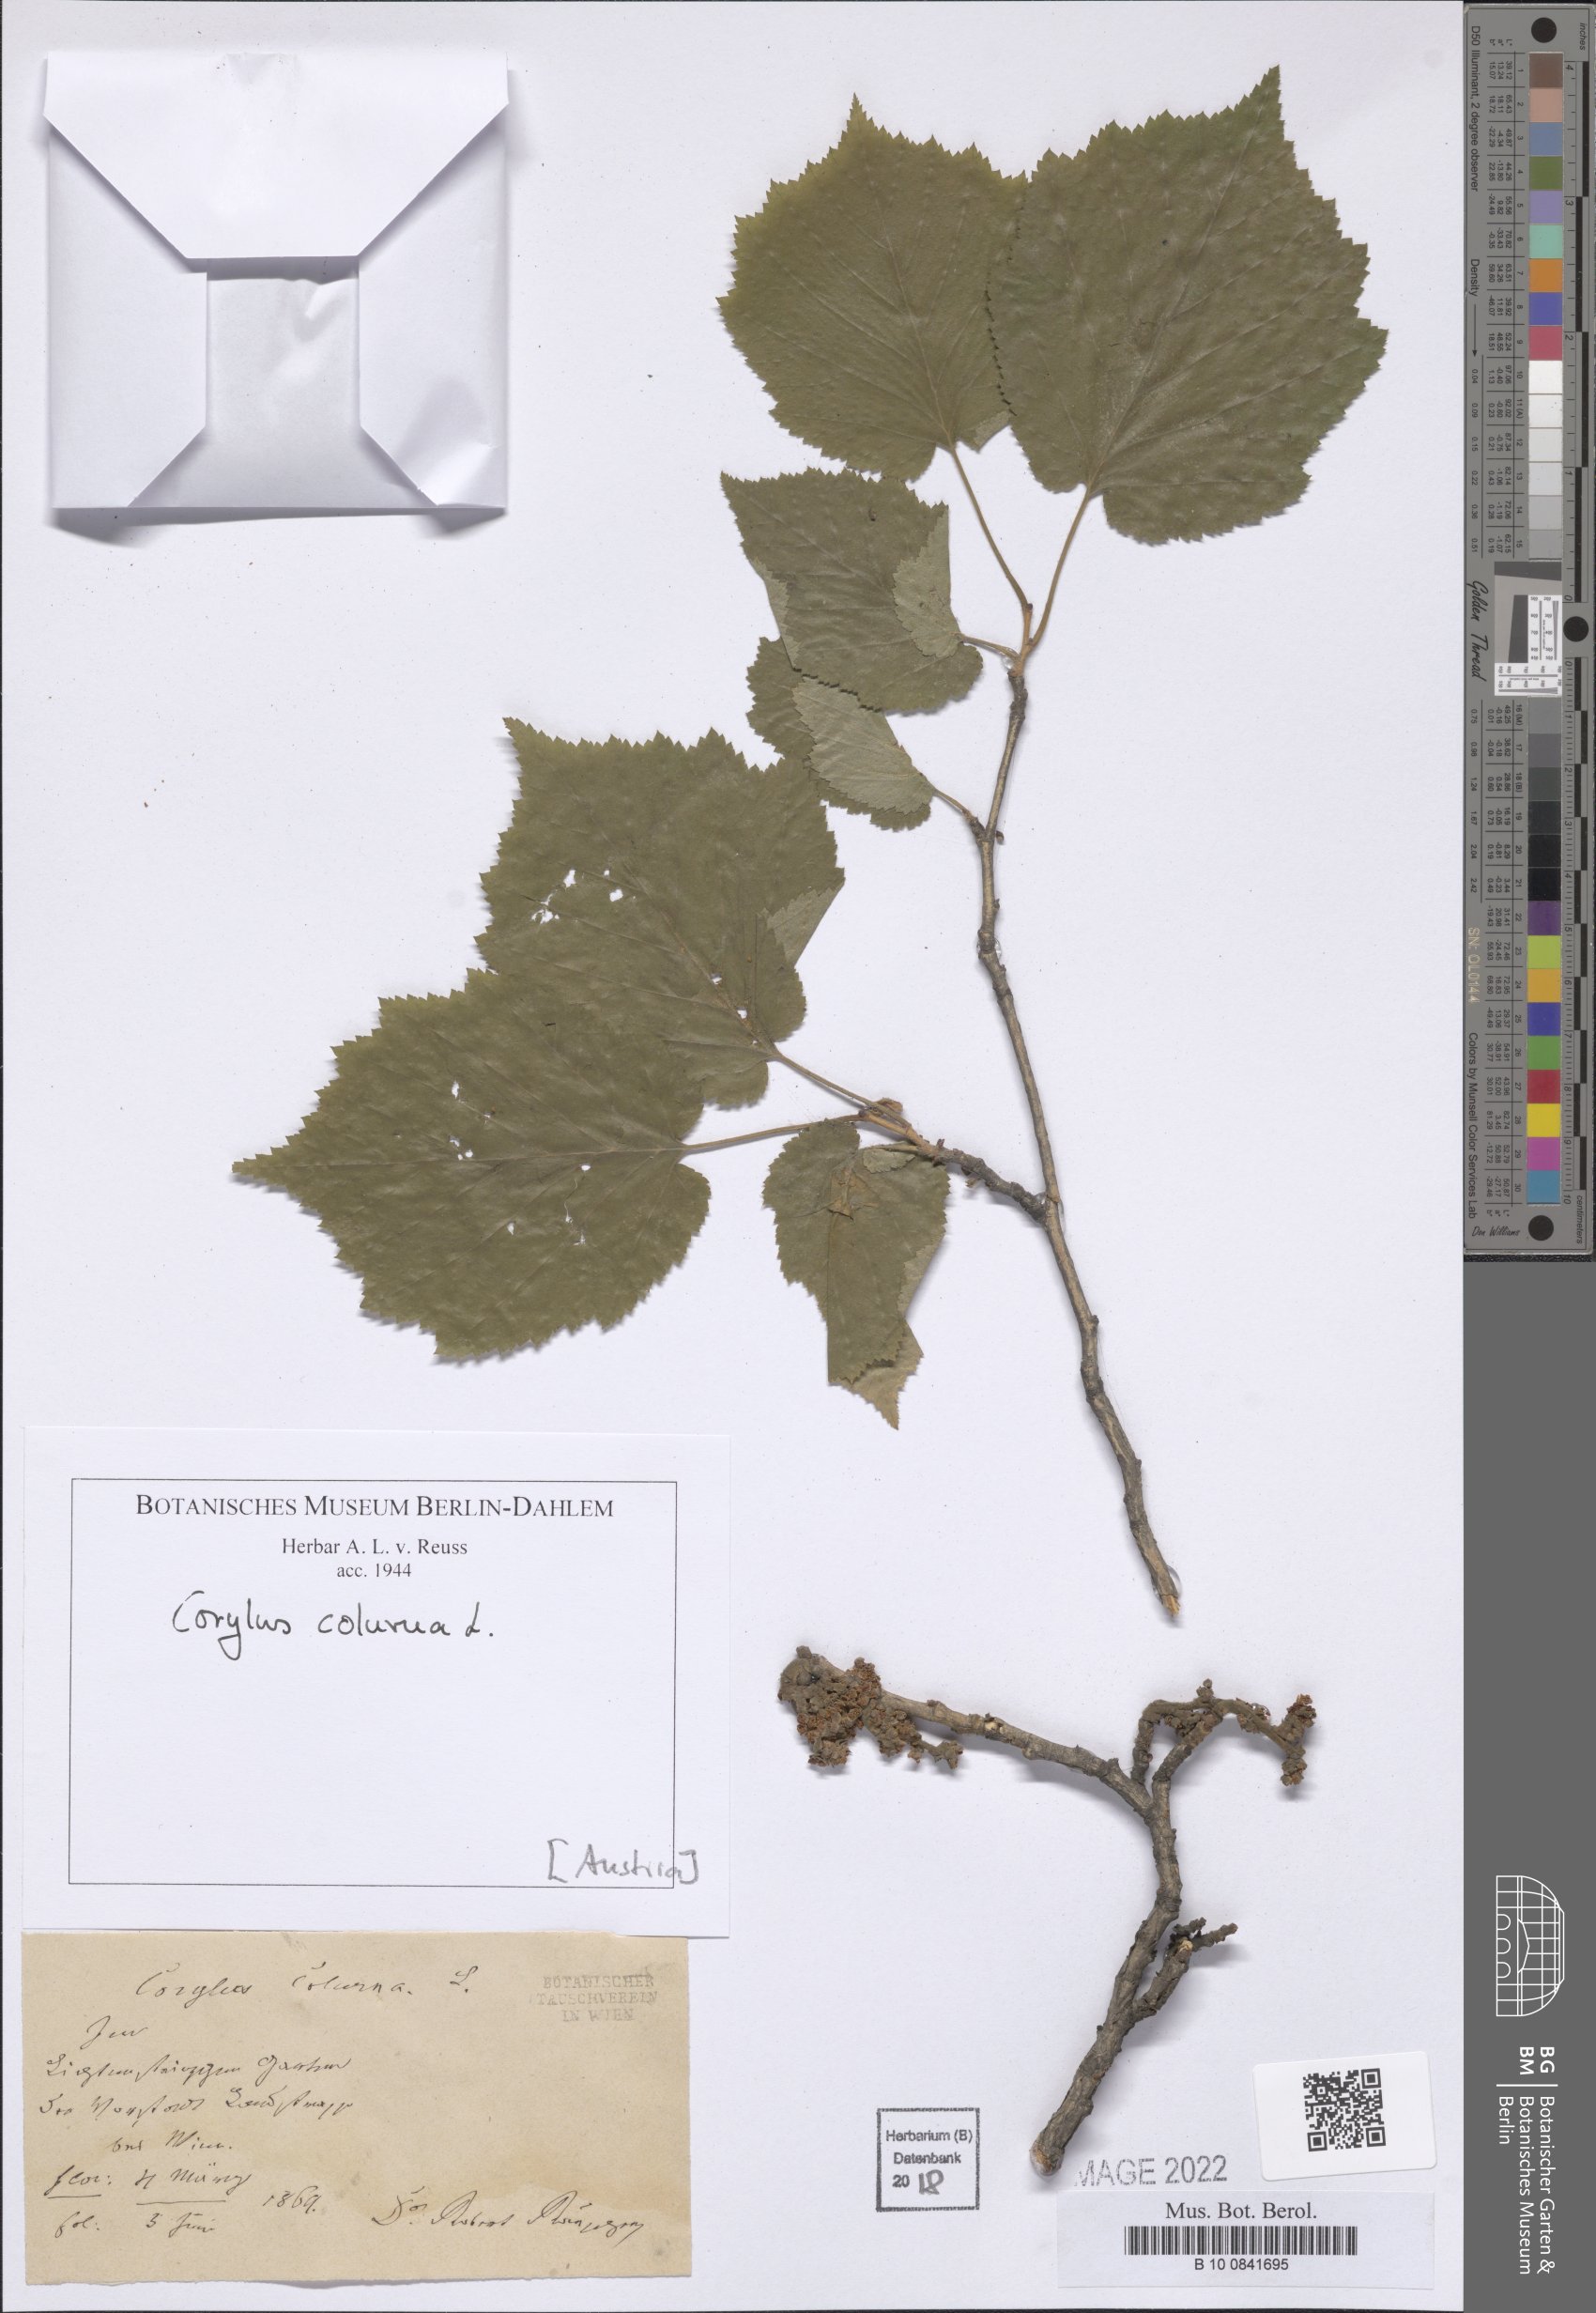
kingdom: Plantae
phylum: Tracheophyta
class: Magnoliopsida
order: Fagales
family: Betulaceae
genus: Corylus
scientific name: Corylus colurna
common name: Turkish hazel
